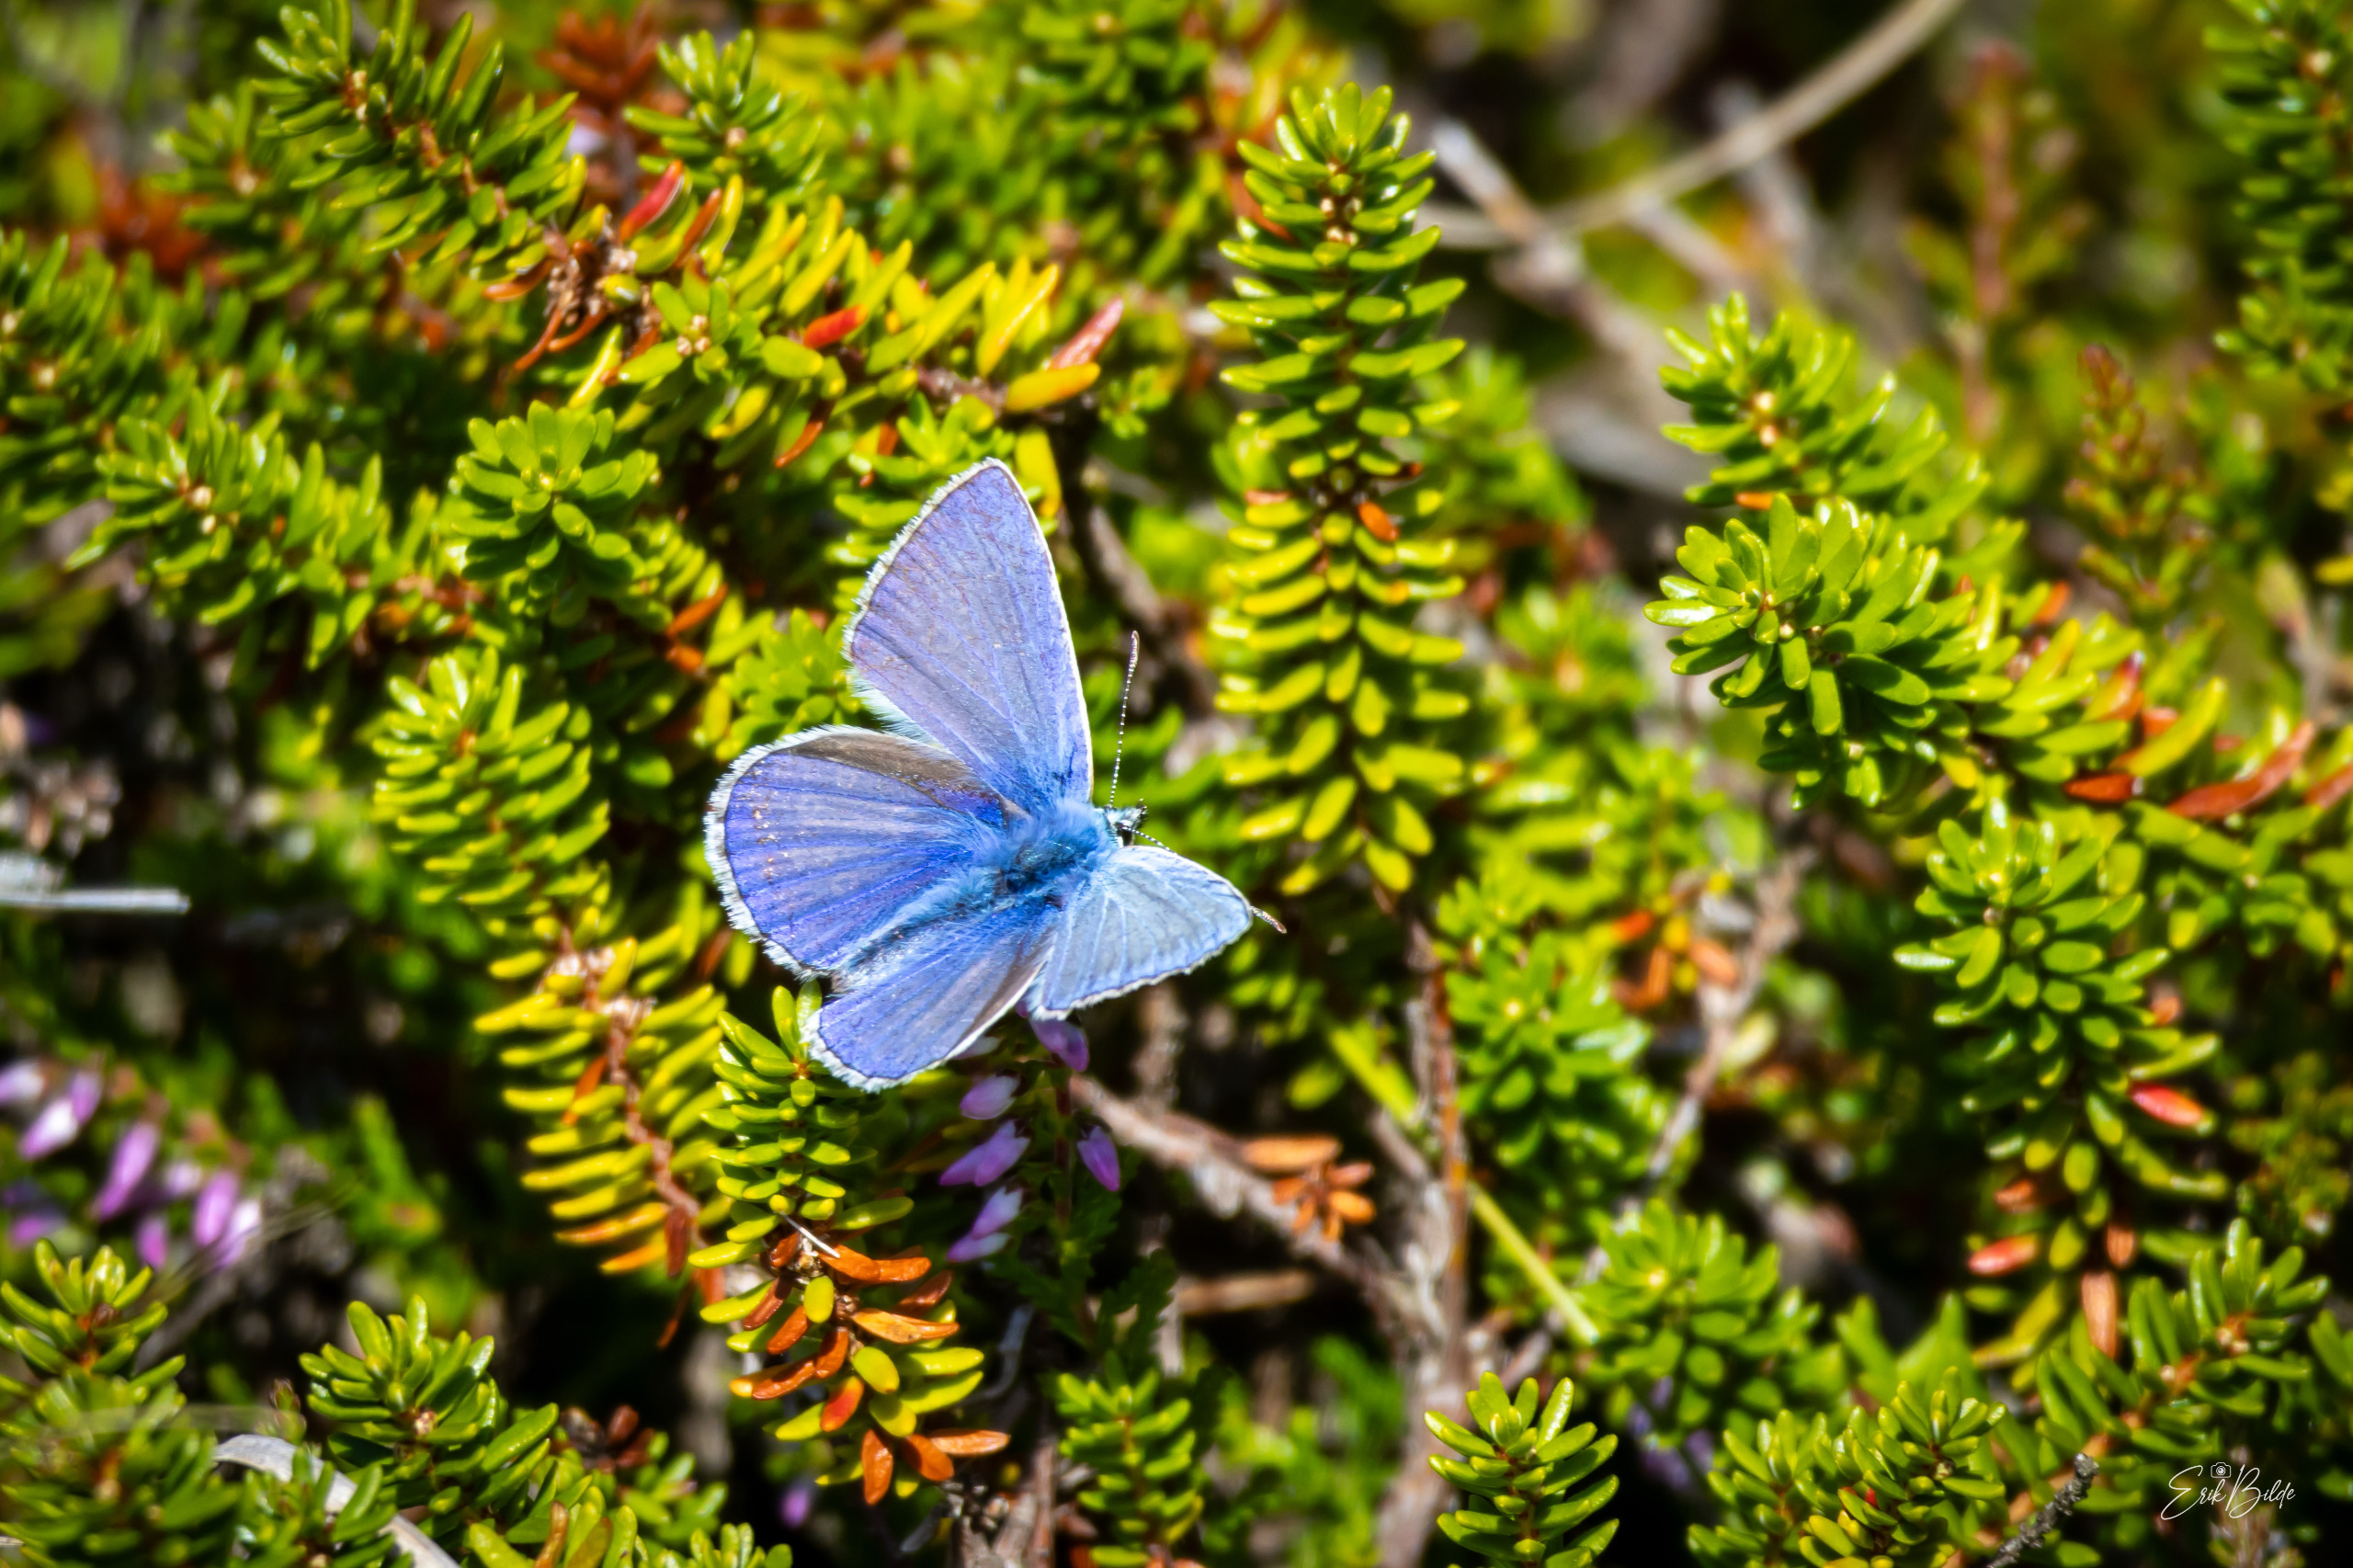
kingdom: Animalia
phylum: Arthropoda
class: Insecta
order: Lepidoptera
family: Lycaenidae
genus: Polyommatus
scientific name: Polyommatus icarus
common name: Almindelig blåfugl
